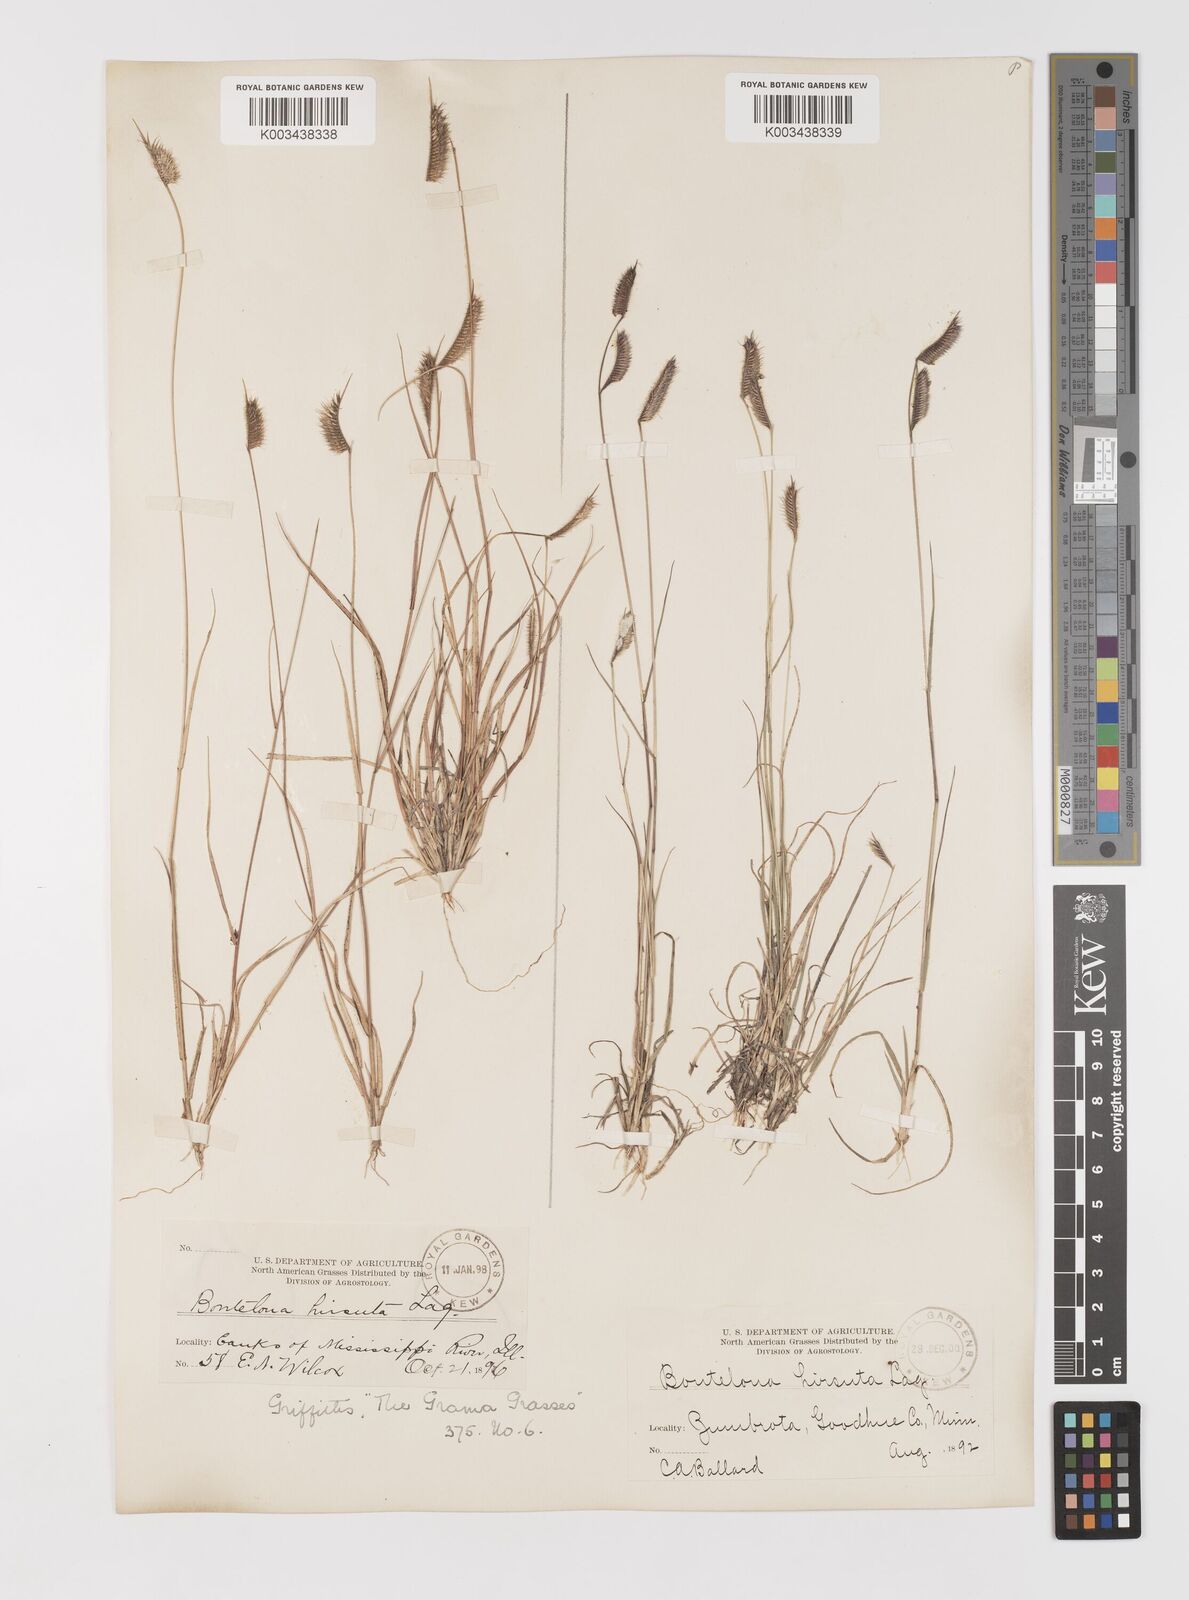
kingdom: Plantae
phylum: Tracheophyta
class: Liliopsida
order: Poales
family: Poaceae
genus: Bouteloua
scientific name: Bouteloua hirsuta
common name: Hairy grama
